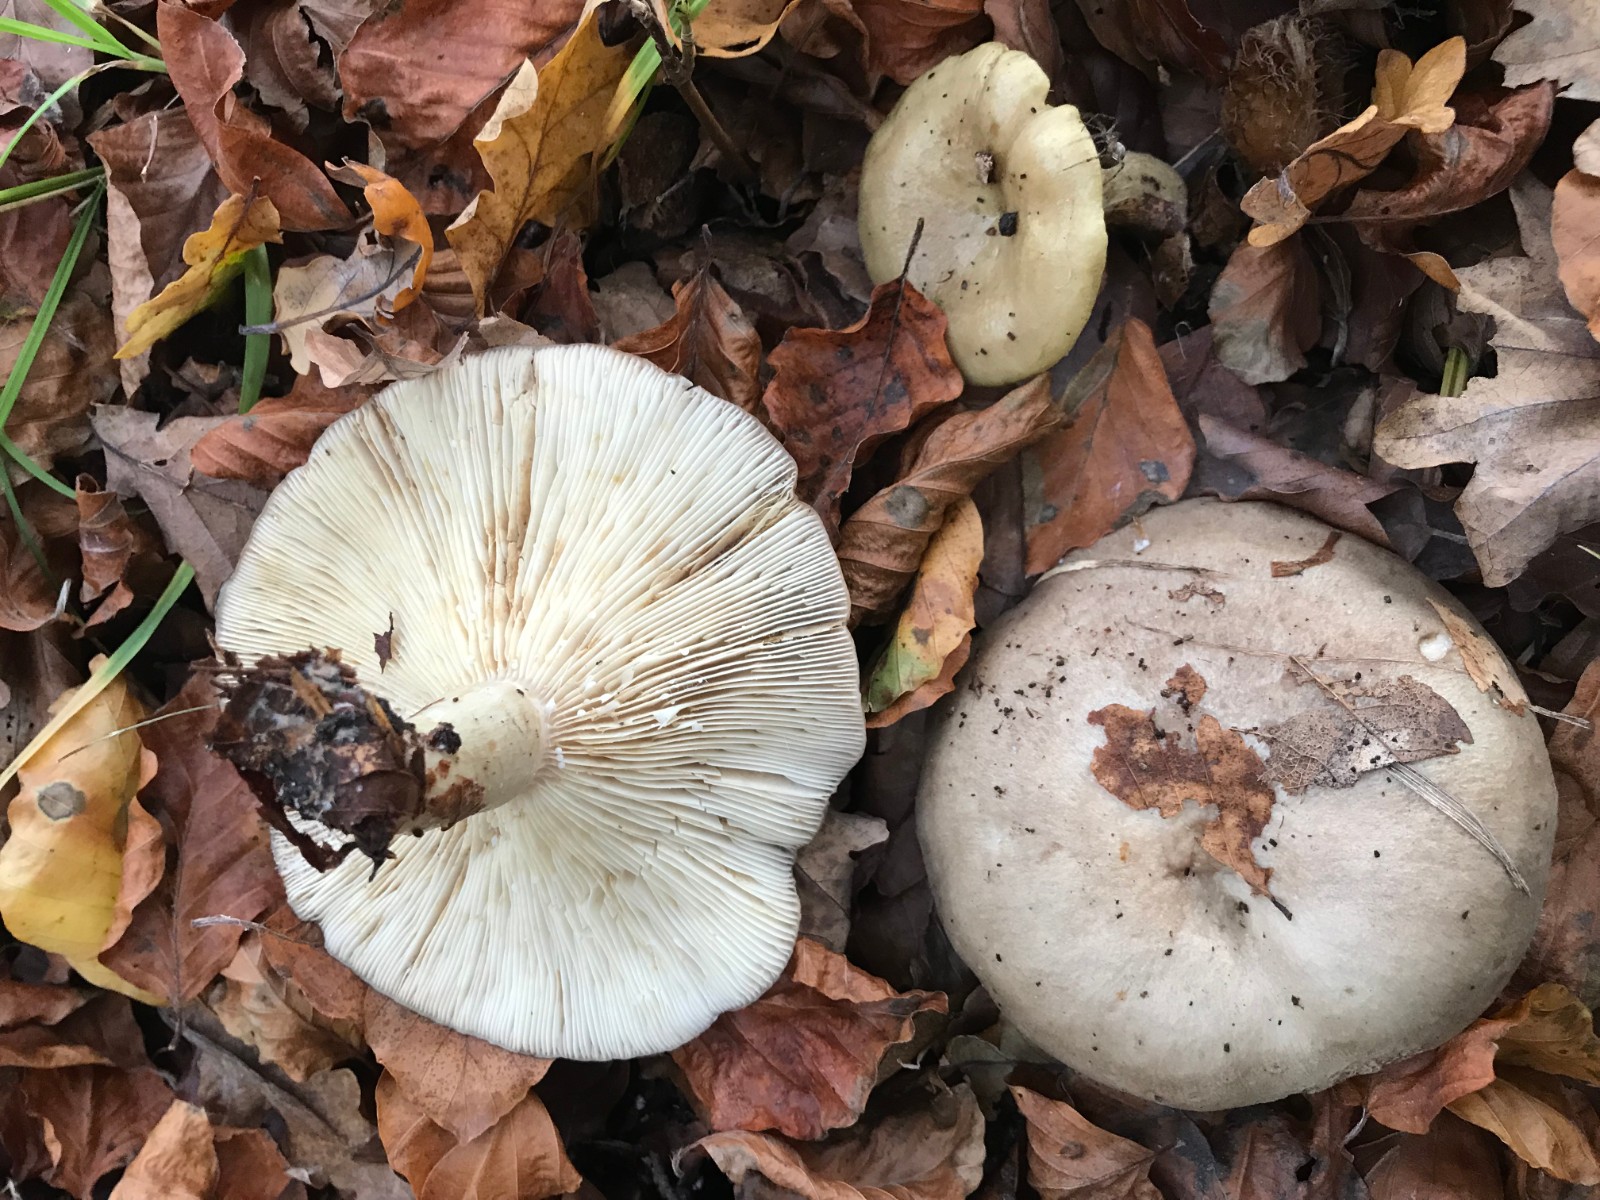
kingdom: Fungi
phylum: Basidiomycota
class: Agaricomycetes
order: Russulales
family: Russulaceae
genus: Lactarius
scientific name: Lactarius blennius
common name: dråbeplettet mælkehat
